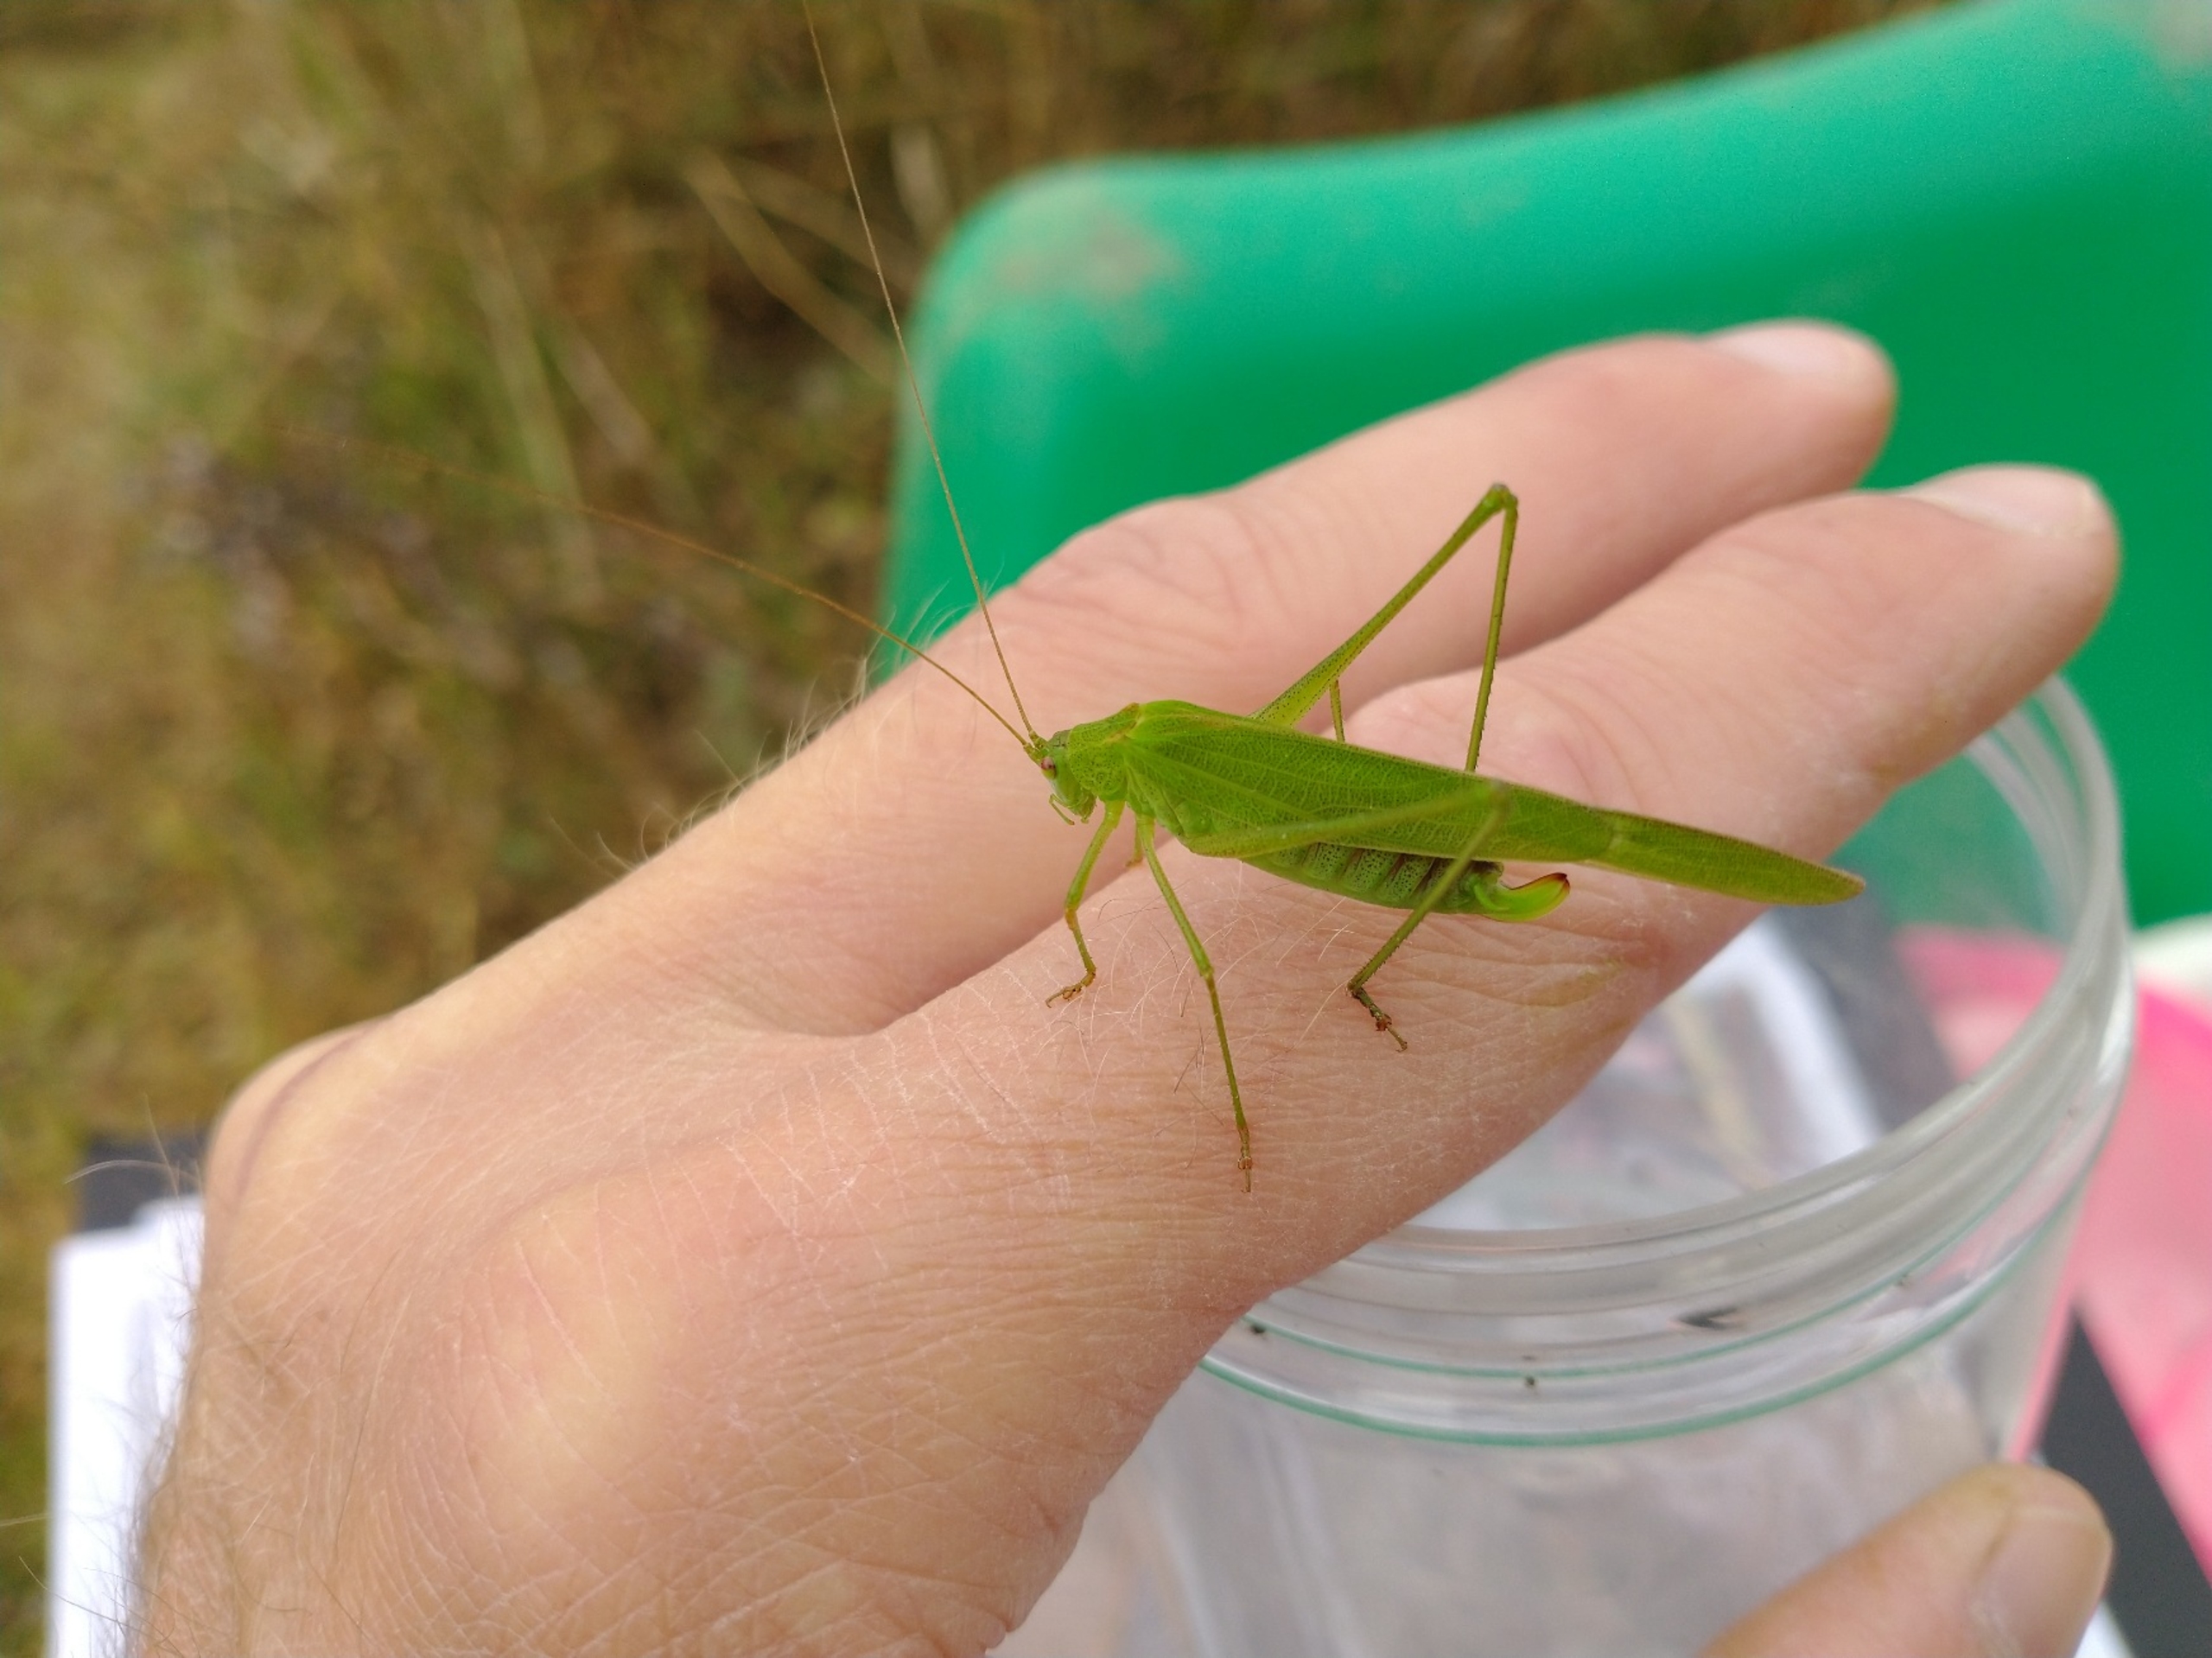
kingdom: Animalia
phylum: Arthropoda
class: Insecta
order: Orthoptera
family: Tettigoniidae
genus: Phaneroptera
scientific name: Phaneroptera falcata
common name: Seglgræshoppe
